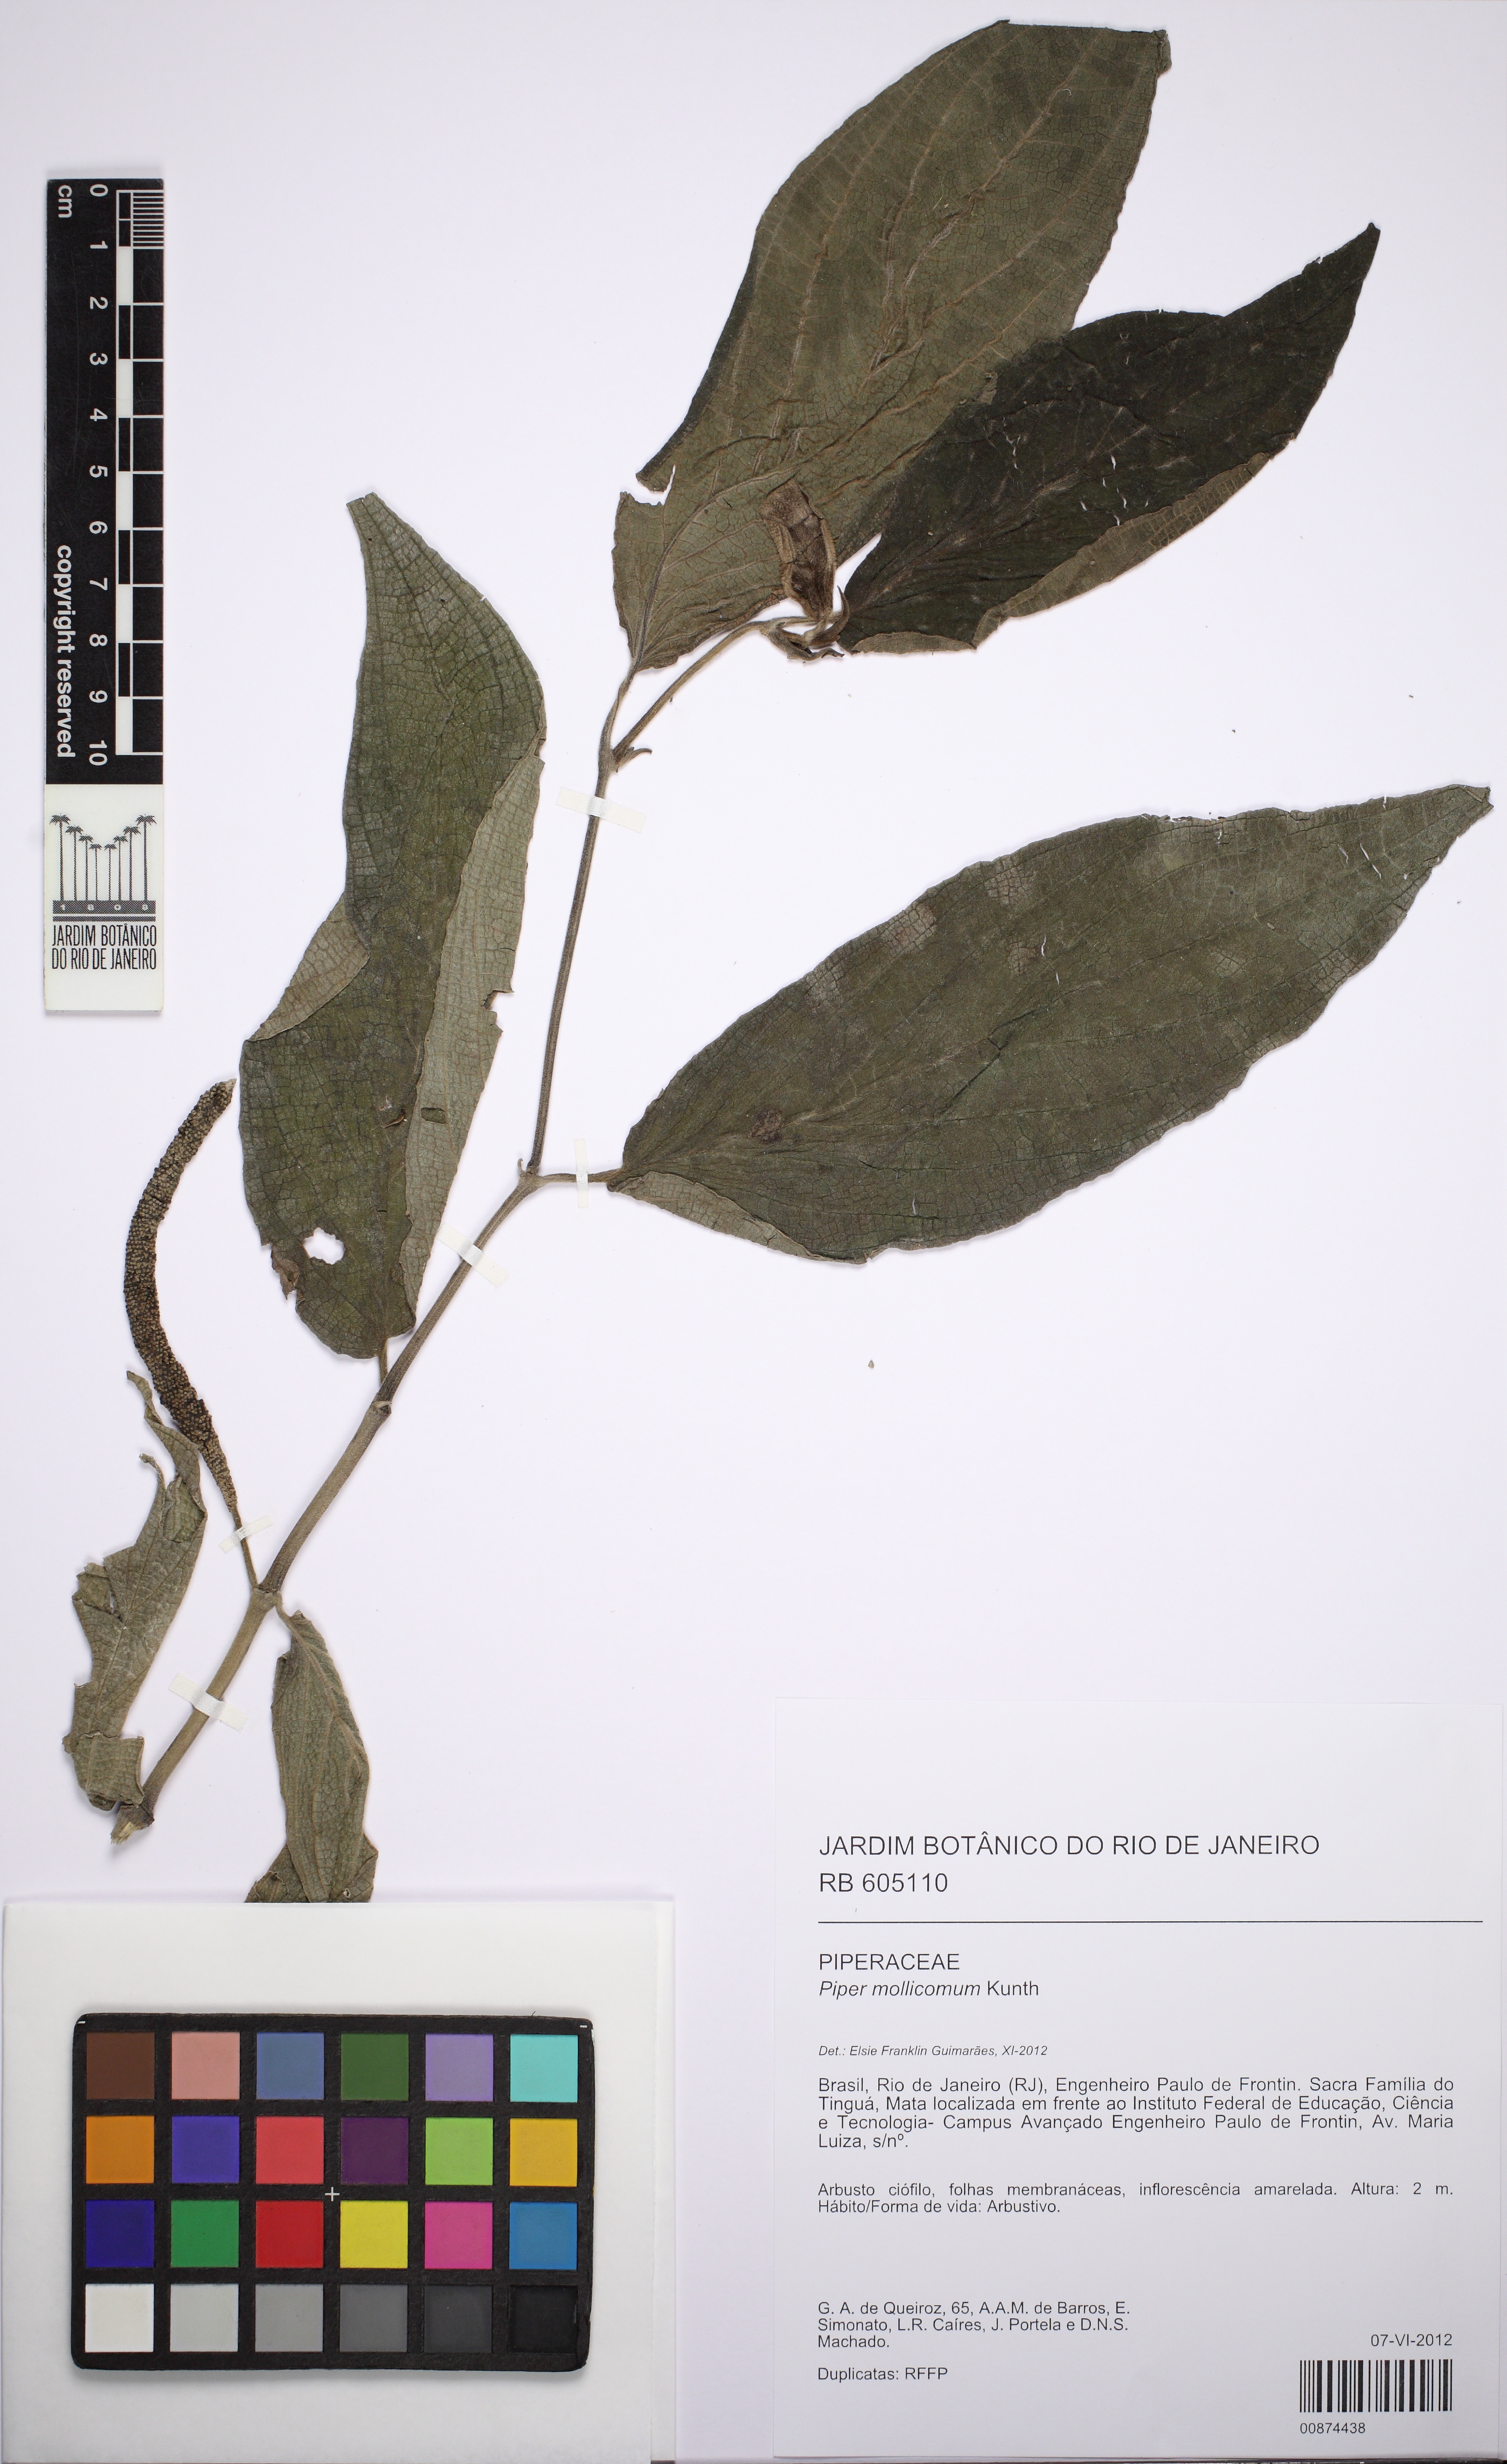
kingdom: Plantae
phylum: Tracheophyta
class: Magnoliopsida
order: Piperales
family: Piperaceae
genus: Piper
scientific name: Piper mollicomum
